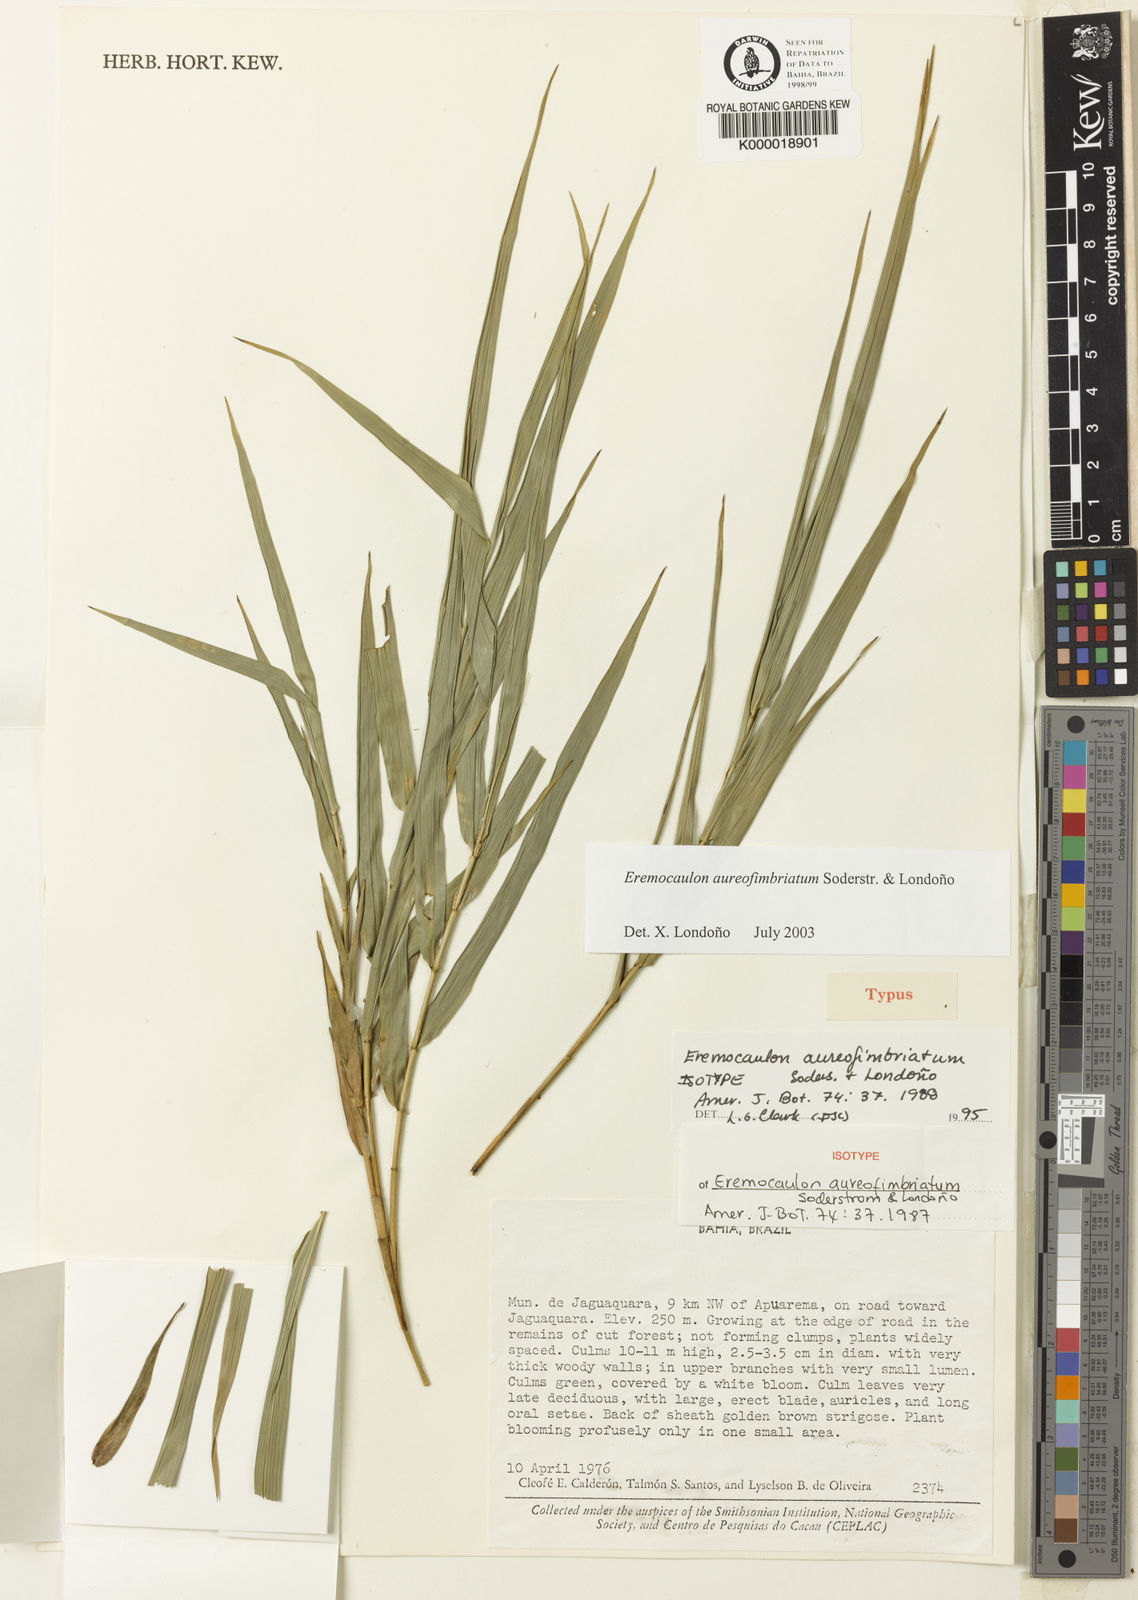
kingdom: Plantae
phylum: Tracheophyta
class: Liliopsida
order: Poales
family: Poaceae
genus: Eremocaulon
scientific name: Eremocaulon
